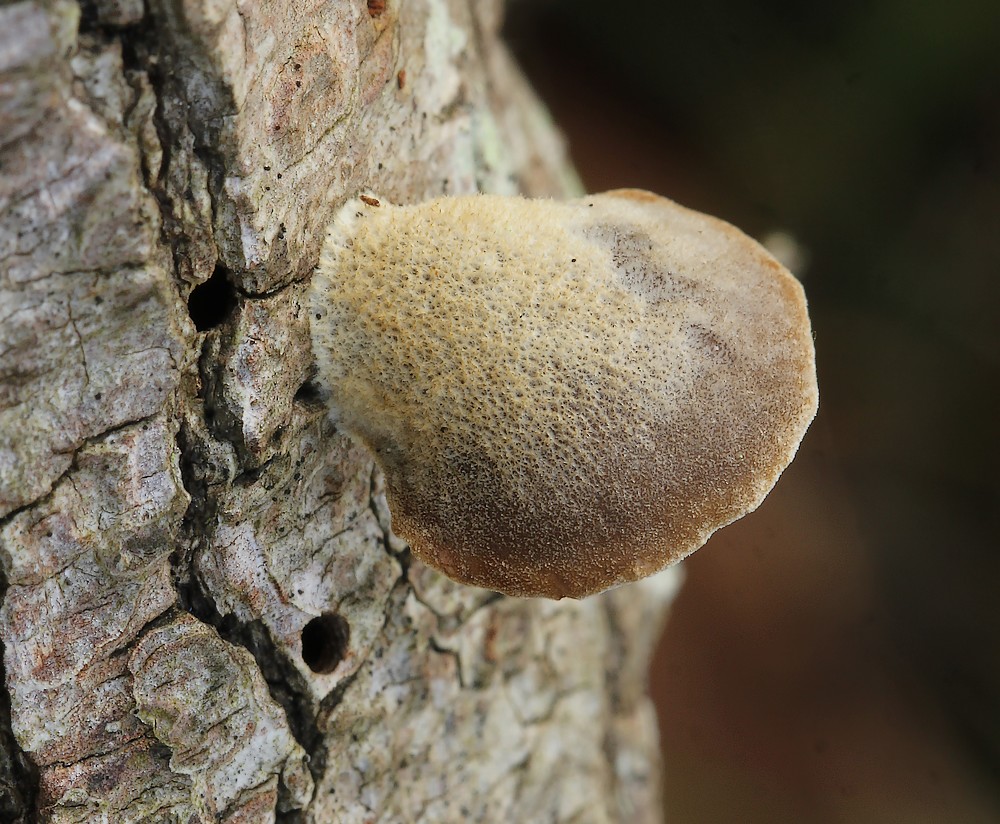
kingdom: Fungi
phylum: Basidiomycota
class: Agaricomycetes
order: Agaricales
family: Pleurotaceae
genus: Hohenbuehelia
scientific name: Hohenbuehelia atrocoerulea
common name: blålig filthat
